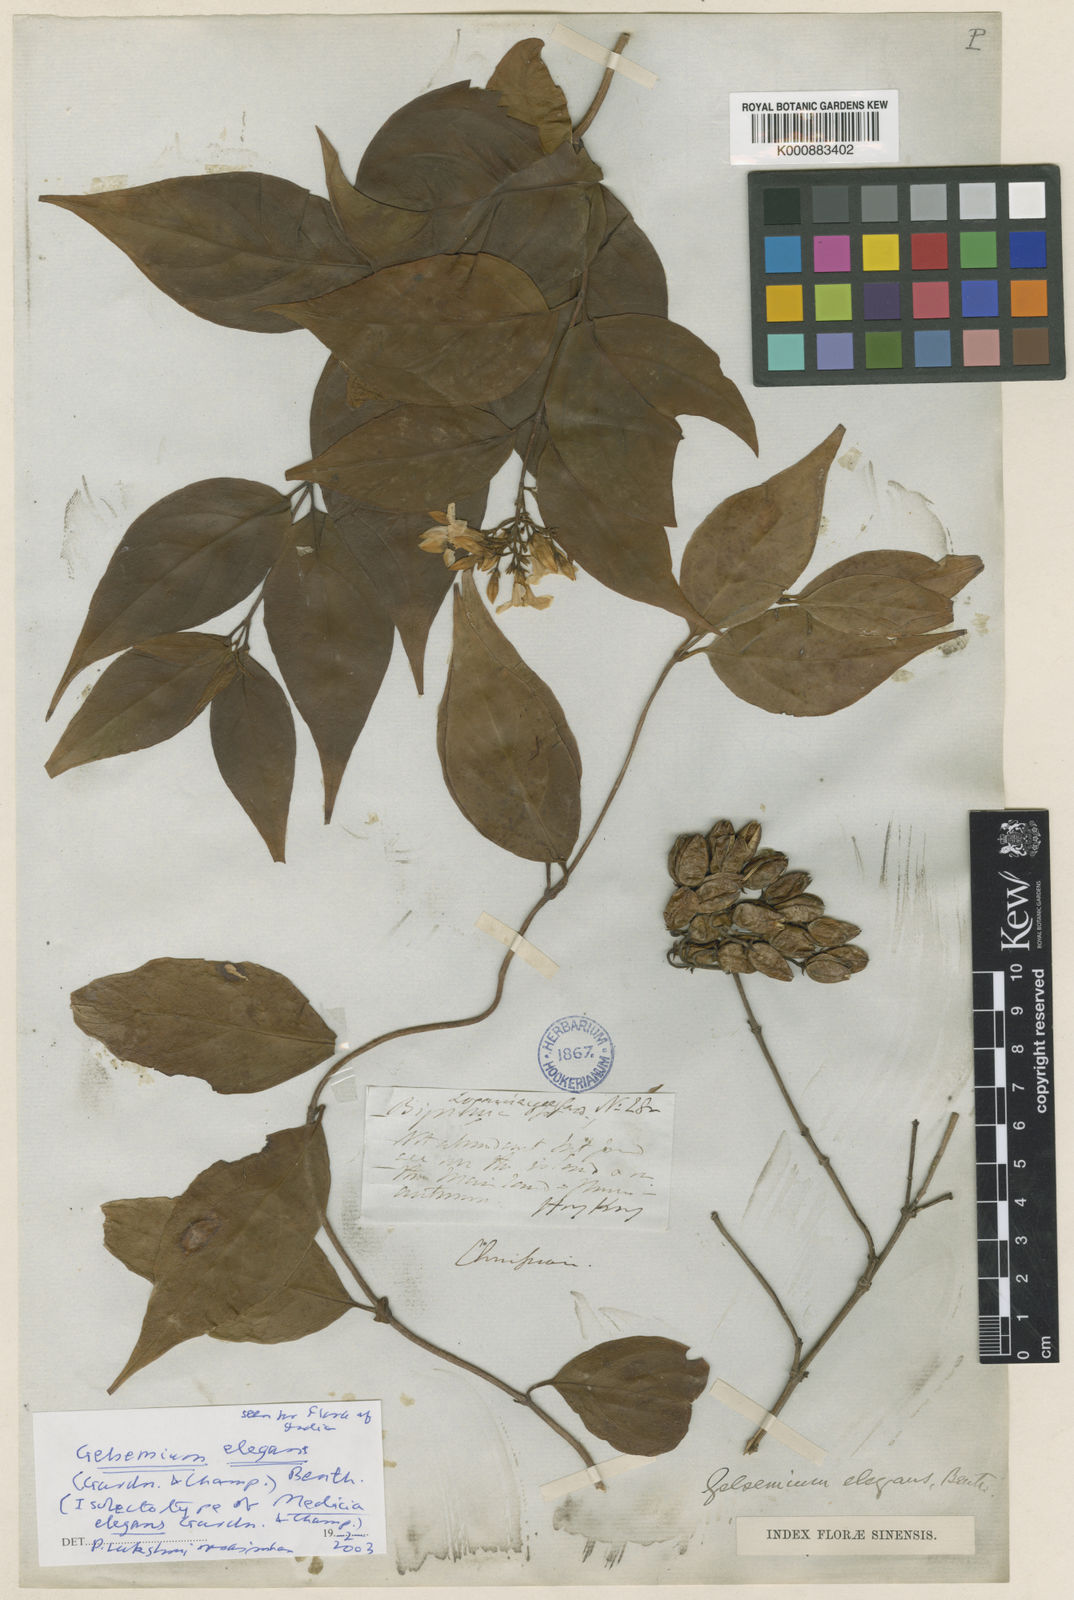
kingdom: Plantae
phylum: Tracheophyta
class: Magnoliopsida
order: Gentianales
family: Gelsemiaceae
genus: Gelsemium
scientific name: Gelsemium elegans
